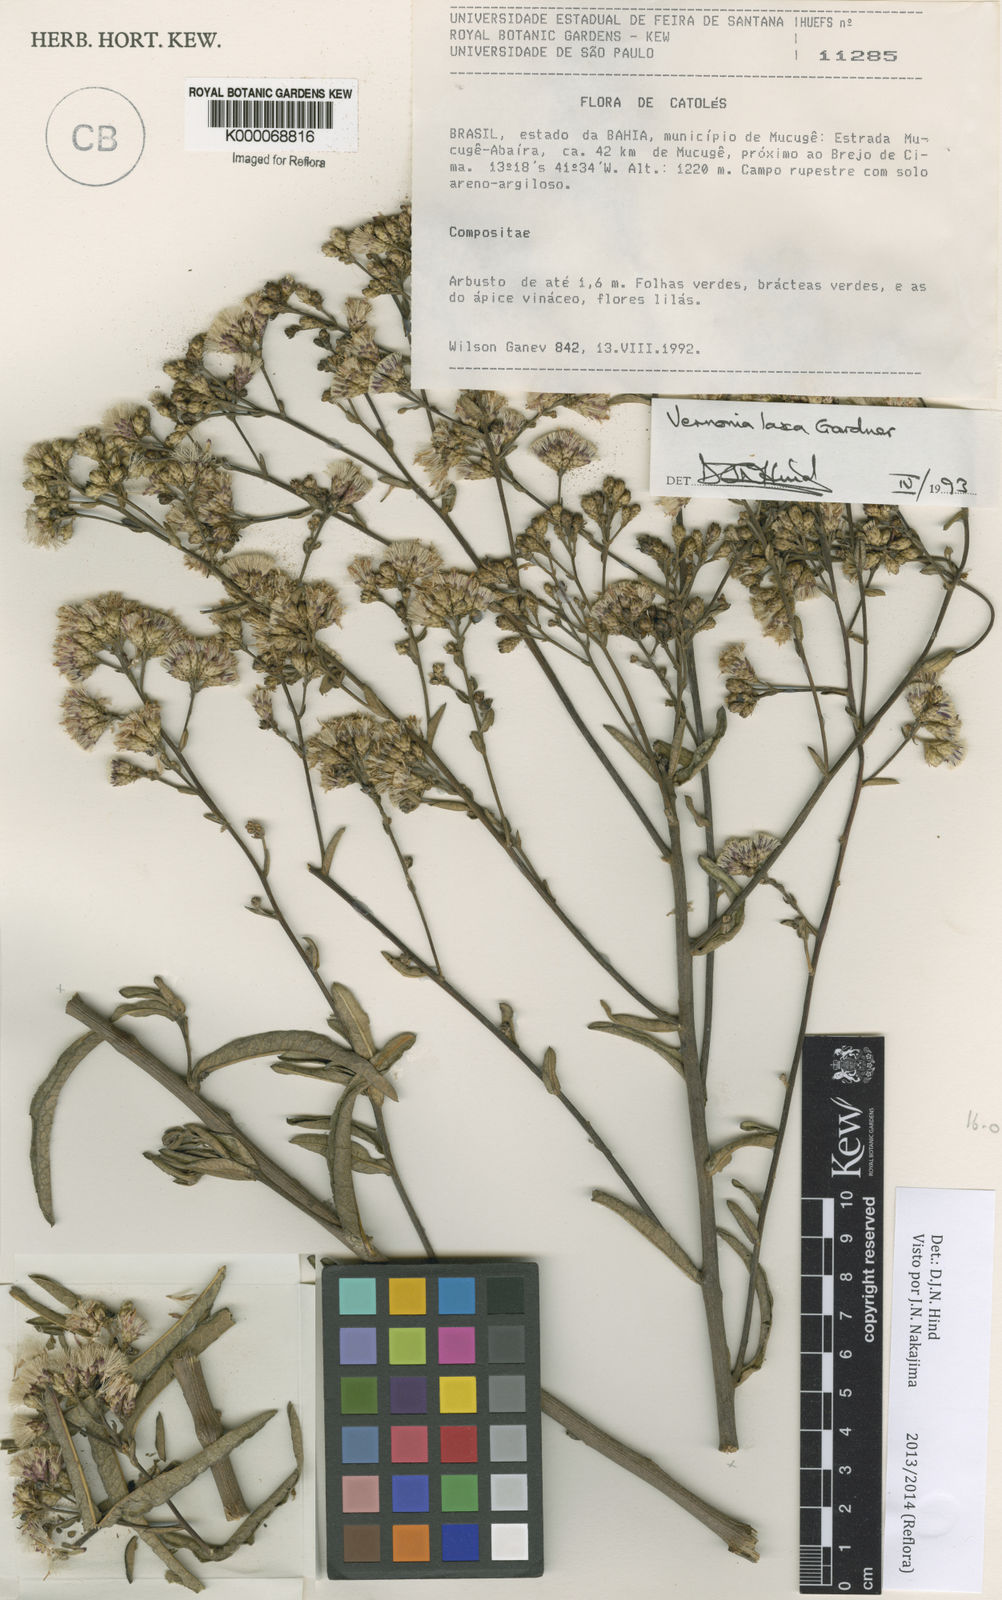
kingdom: Plantae
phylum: Tracheophyta
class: Magnoliopsida
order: Asterales
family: Asteraceae
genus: Vernonanthura
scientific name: Vernonanthura laxa
